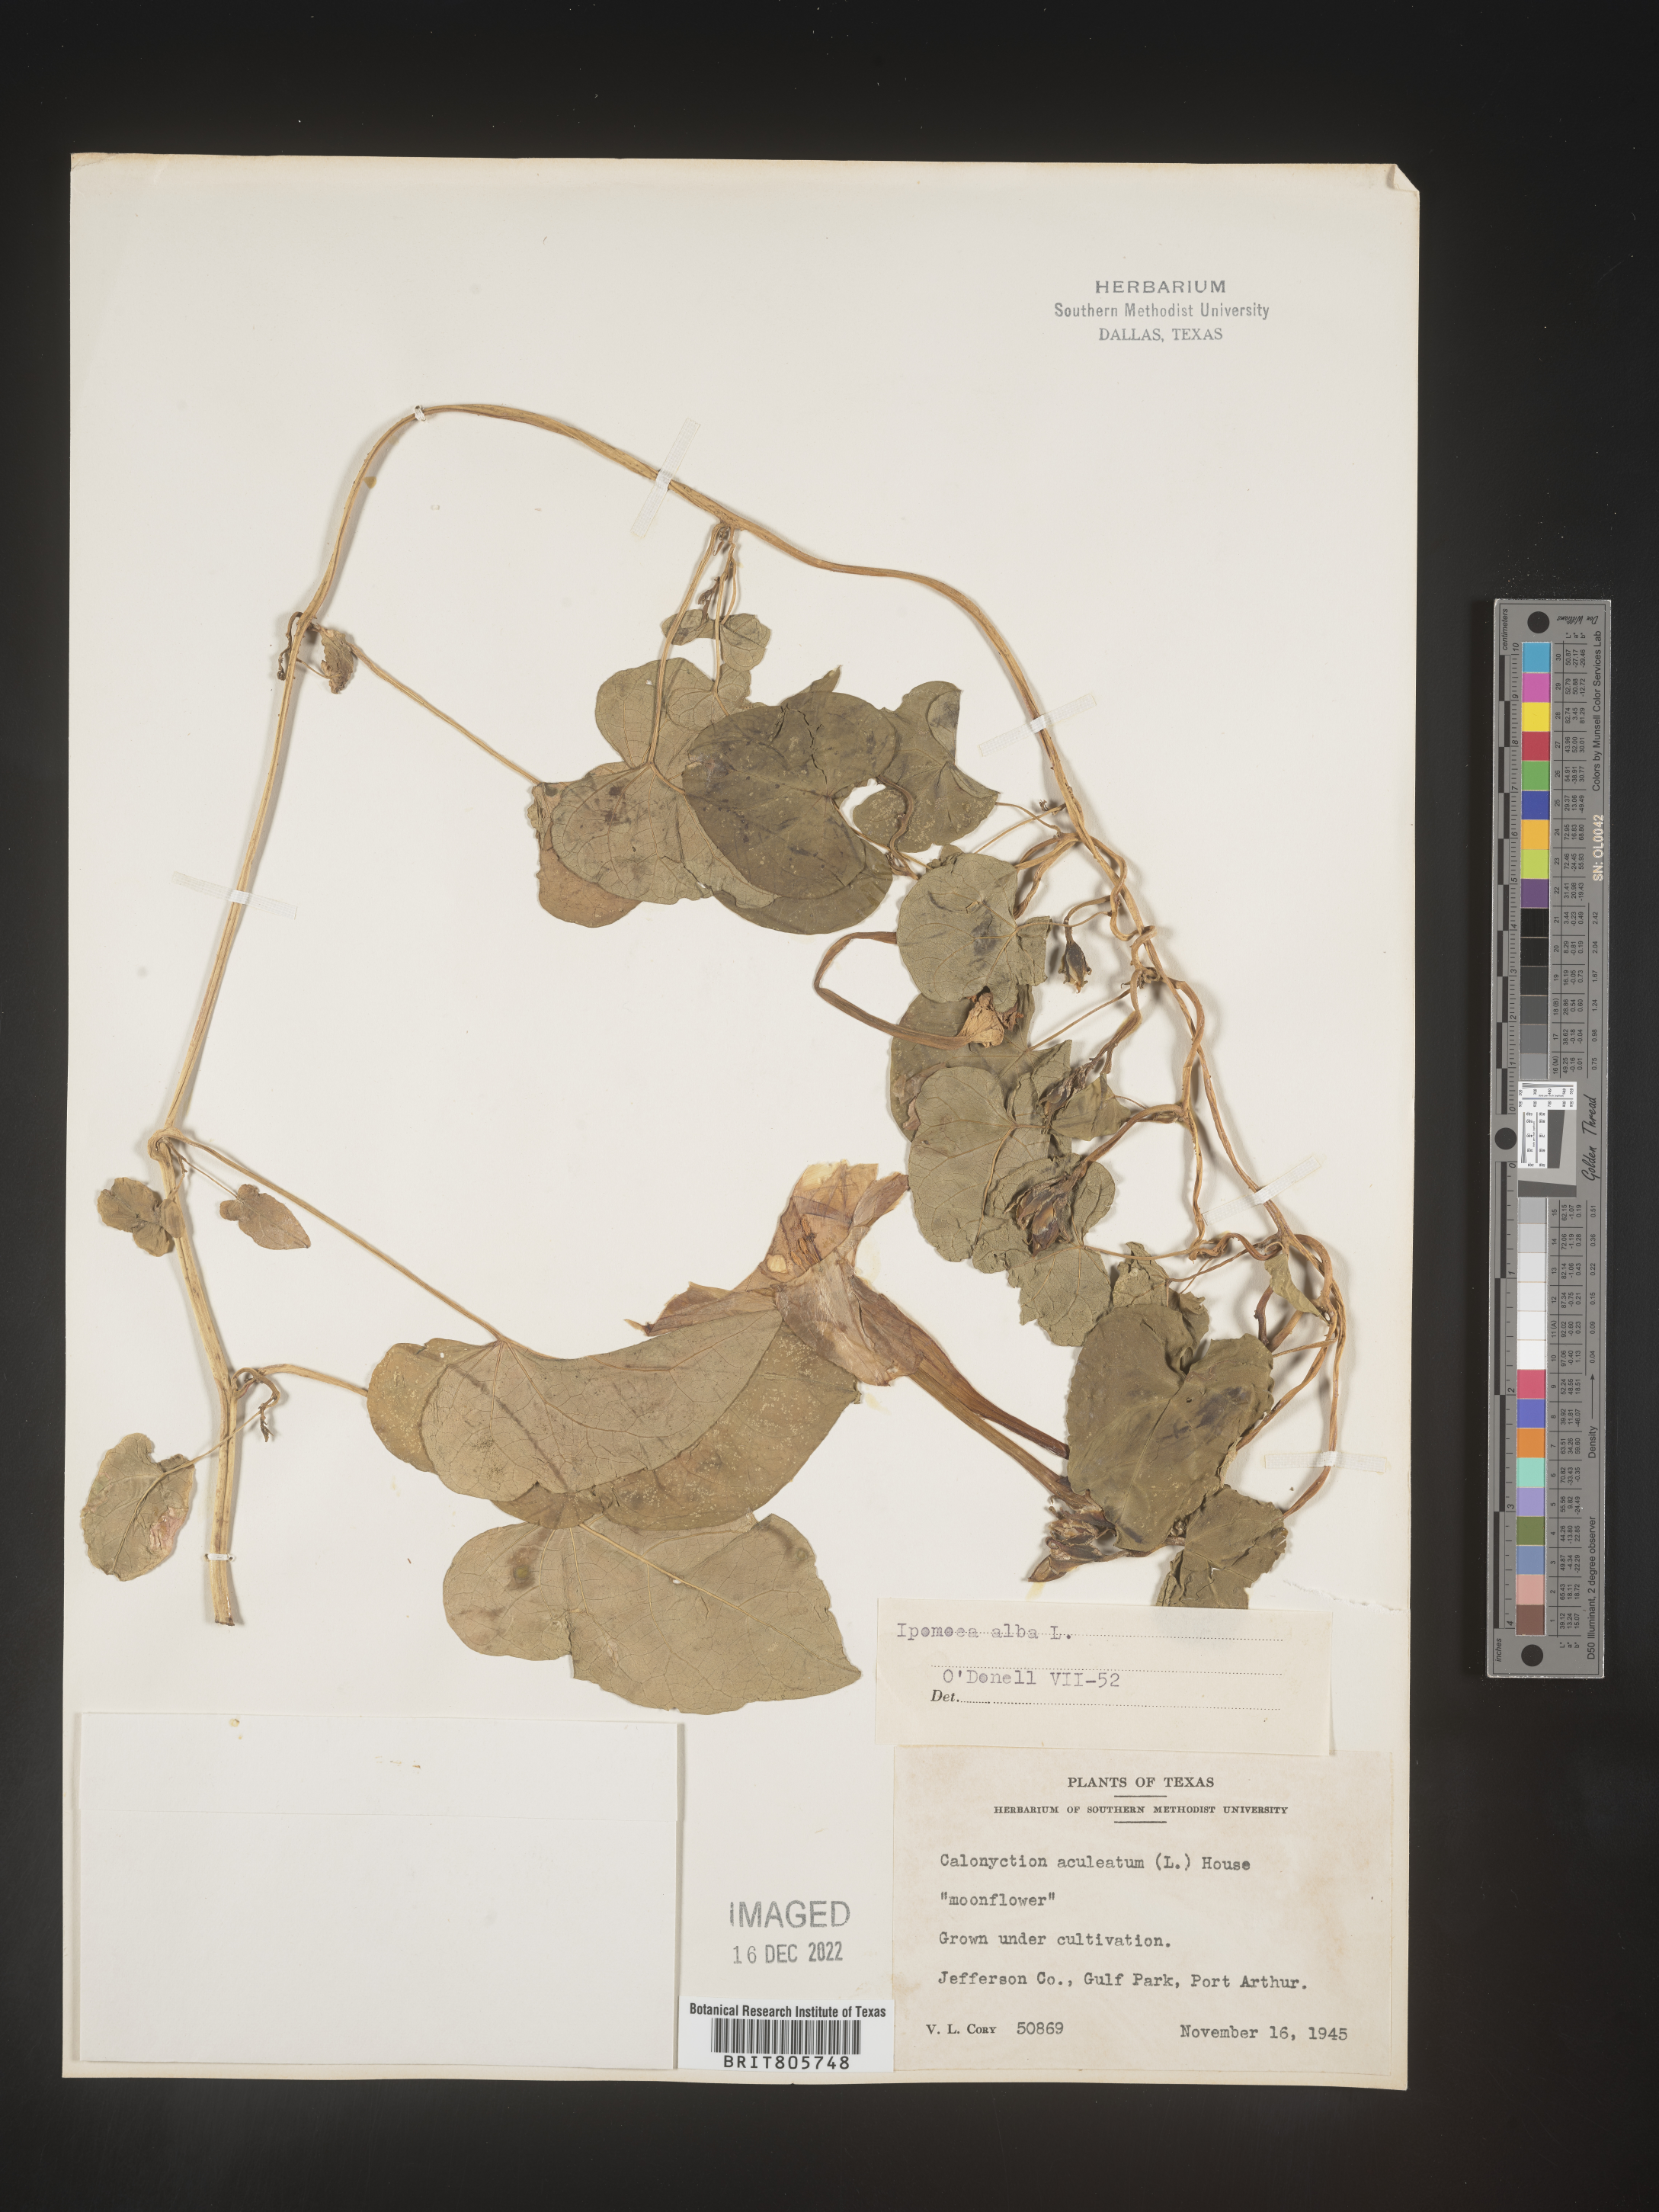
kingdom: Plantae
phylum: Tracheophyta
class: Magnoliopsida
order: Solanales
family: Convolvulaceae
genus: Ipomoea
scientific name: Ipomoea alba
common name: Moonflower
